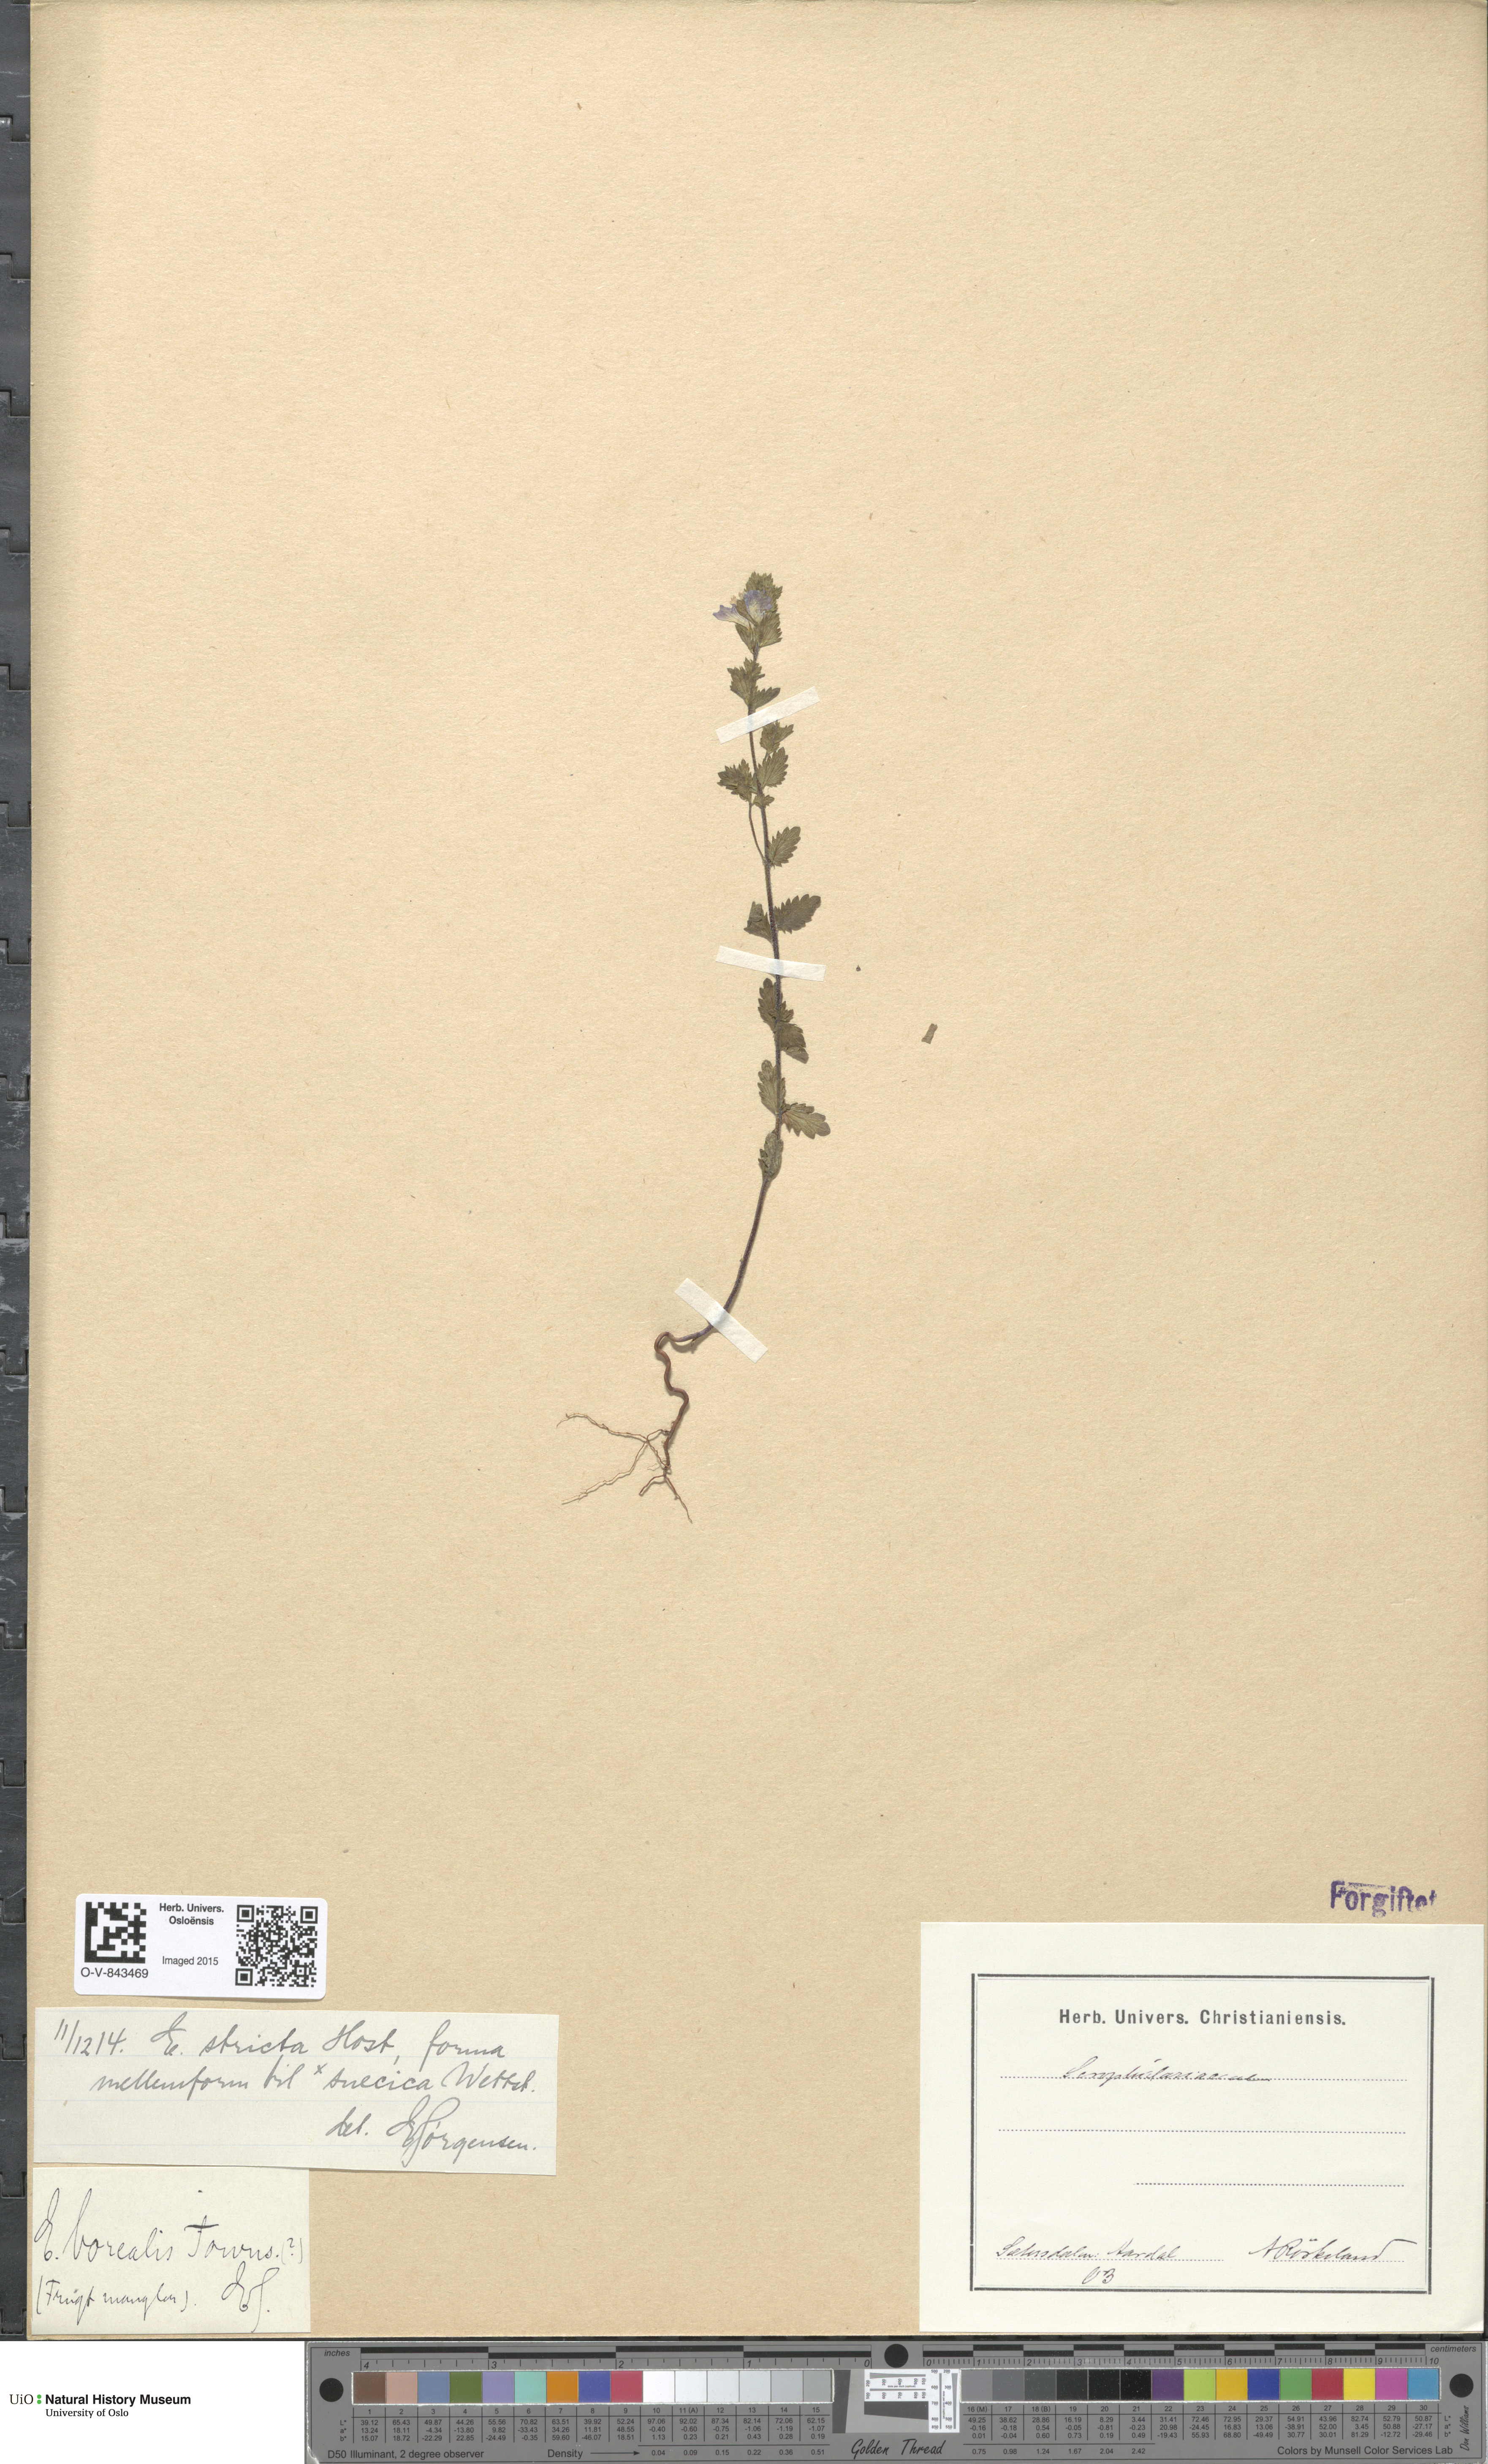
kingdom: Plantae
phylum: Tracheophyta
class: Magnoliopsida
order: Lamiales
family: Orobanchaceae
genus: Euphrasia
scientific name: Euphrasia stricta
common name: Drug eyebright
